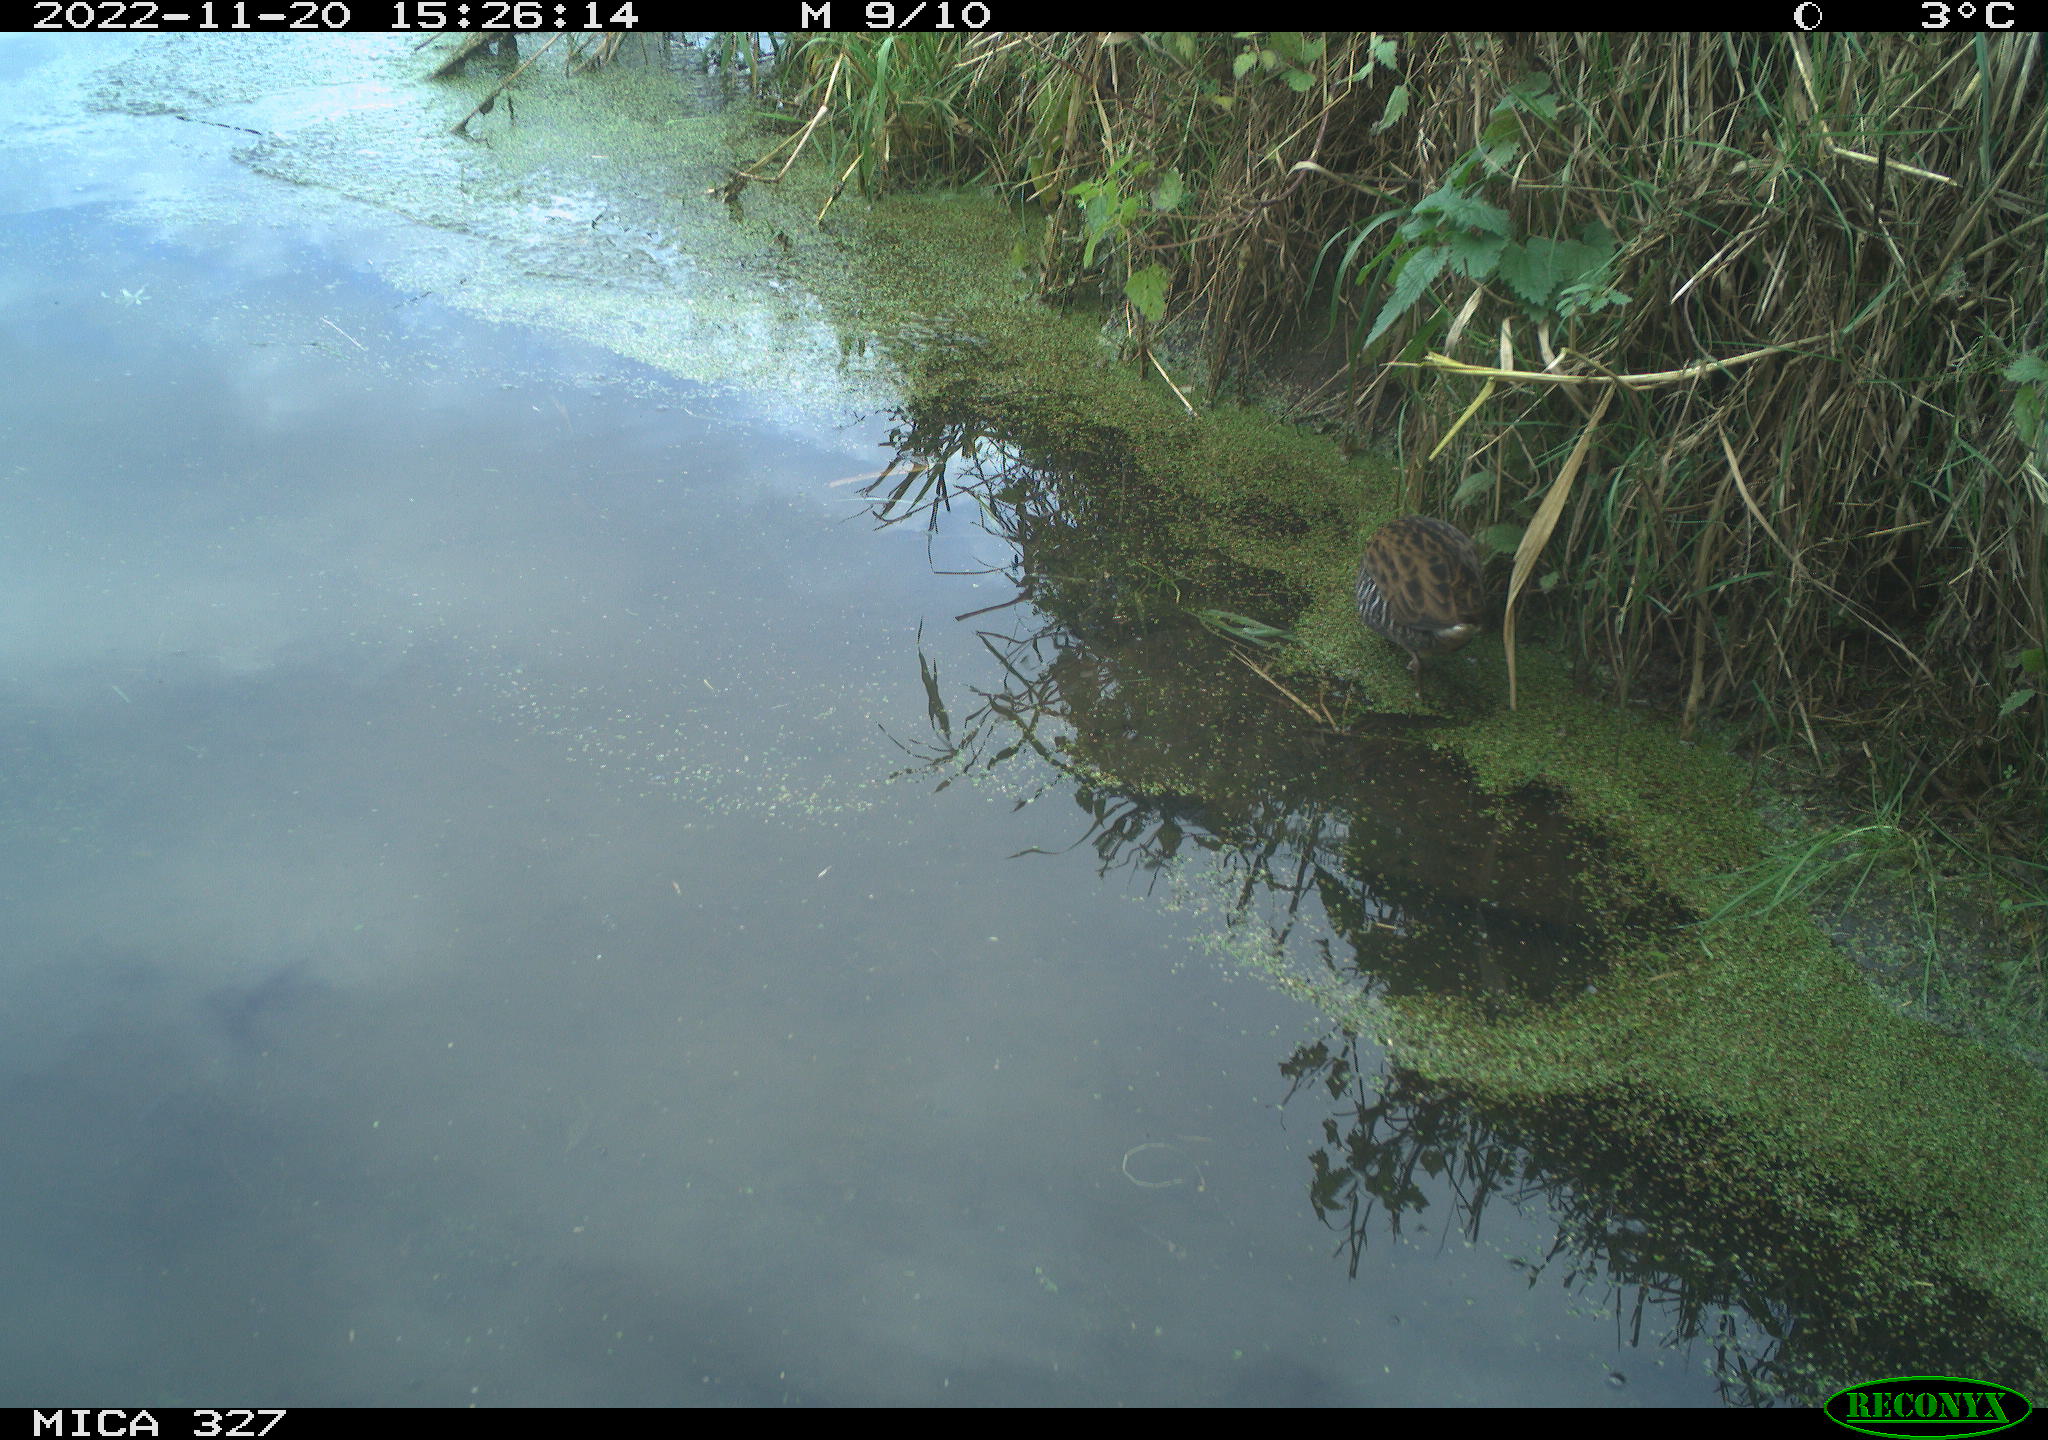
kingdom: Animalia
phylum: Chordata
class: Aves
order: Gruiformes
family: Rallidae
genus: Rallus
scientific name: Rallus aquaticus
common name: Water rail
